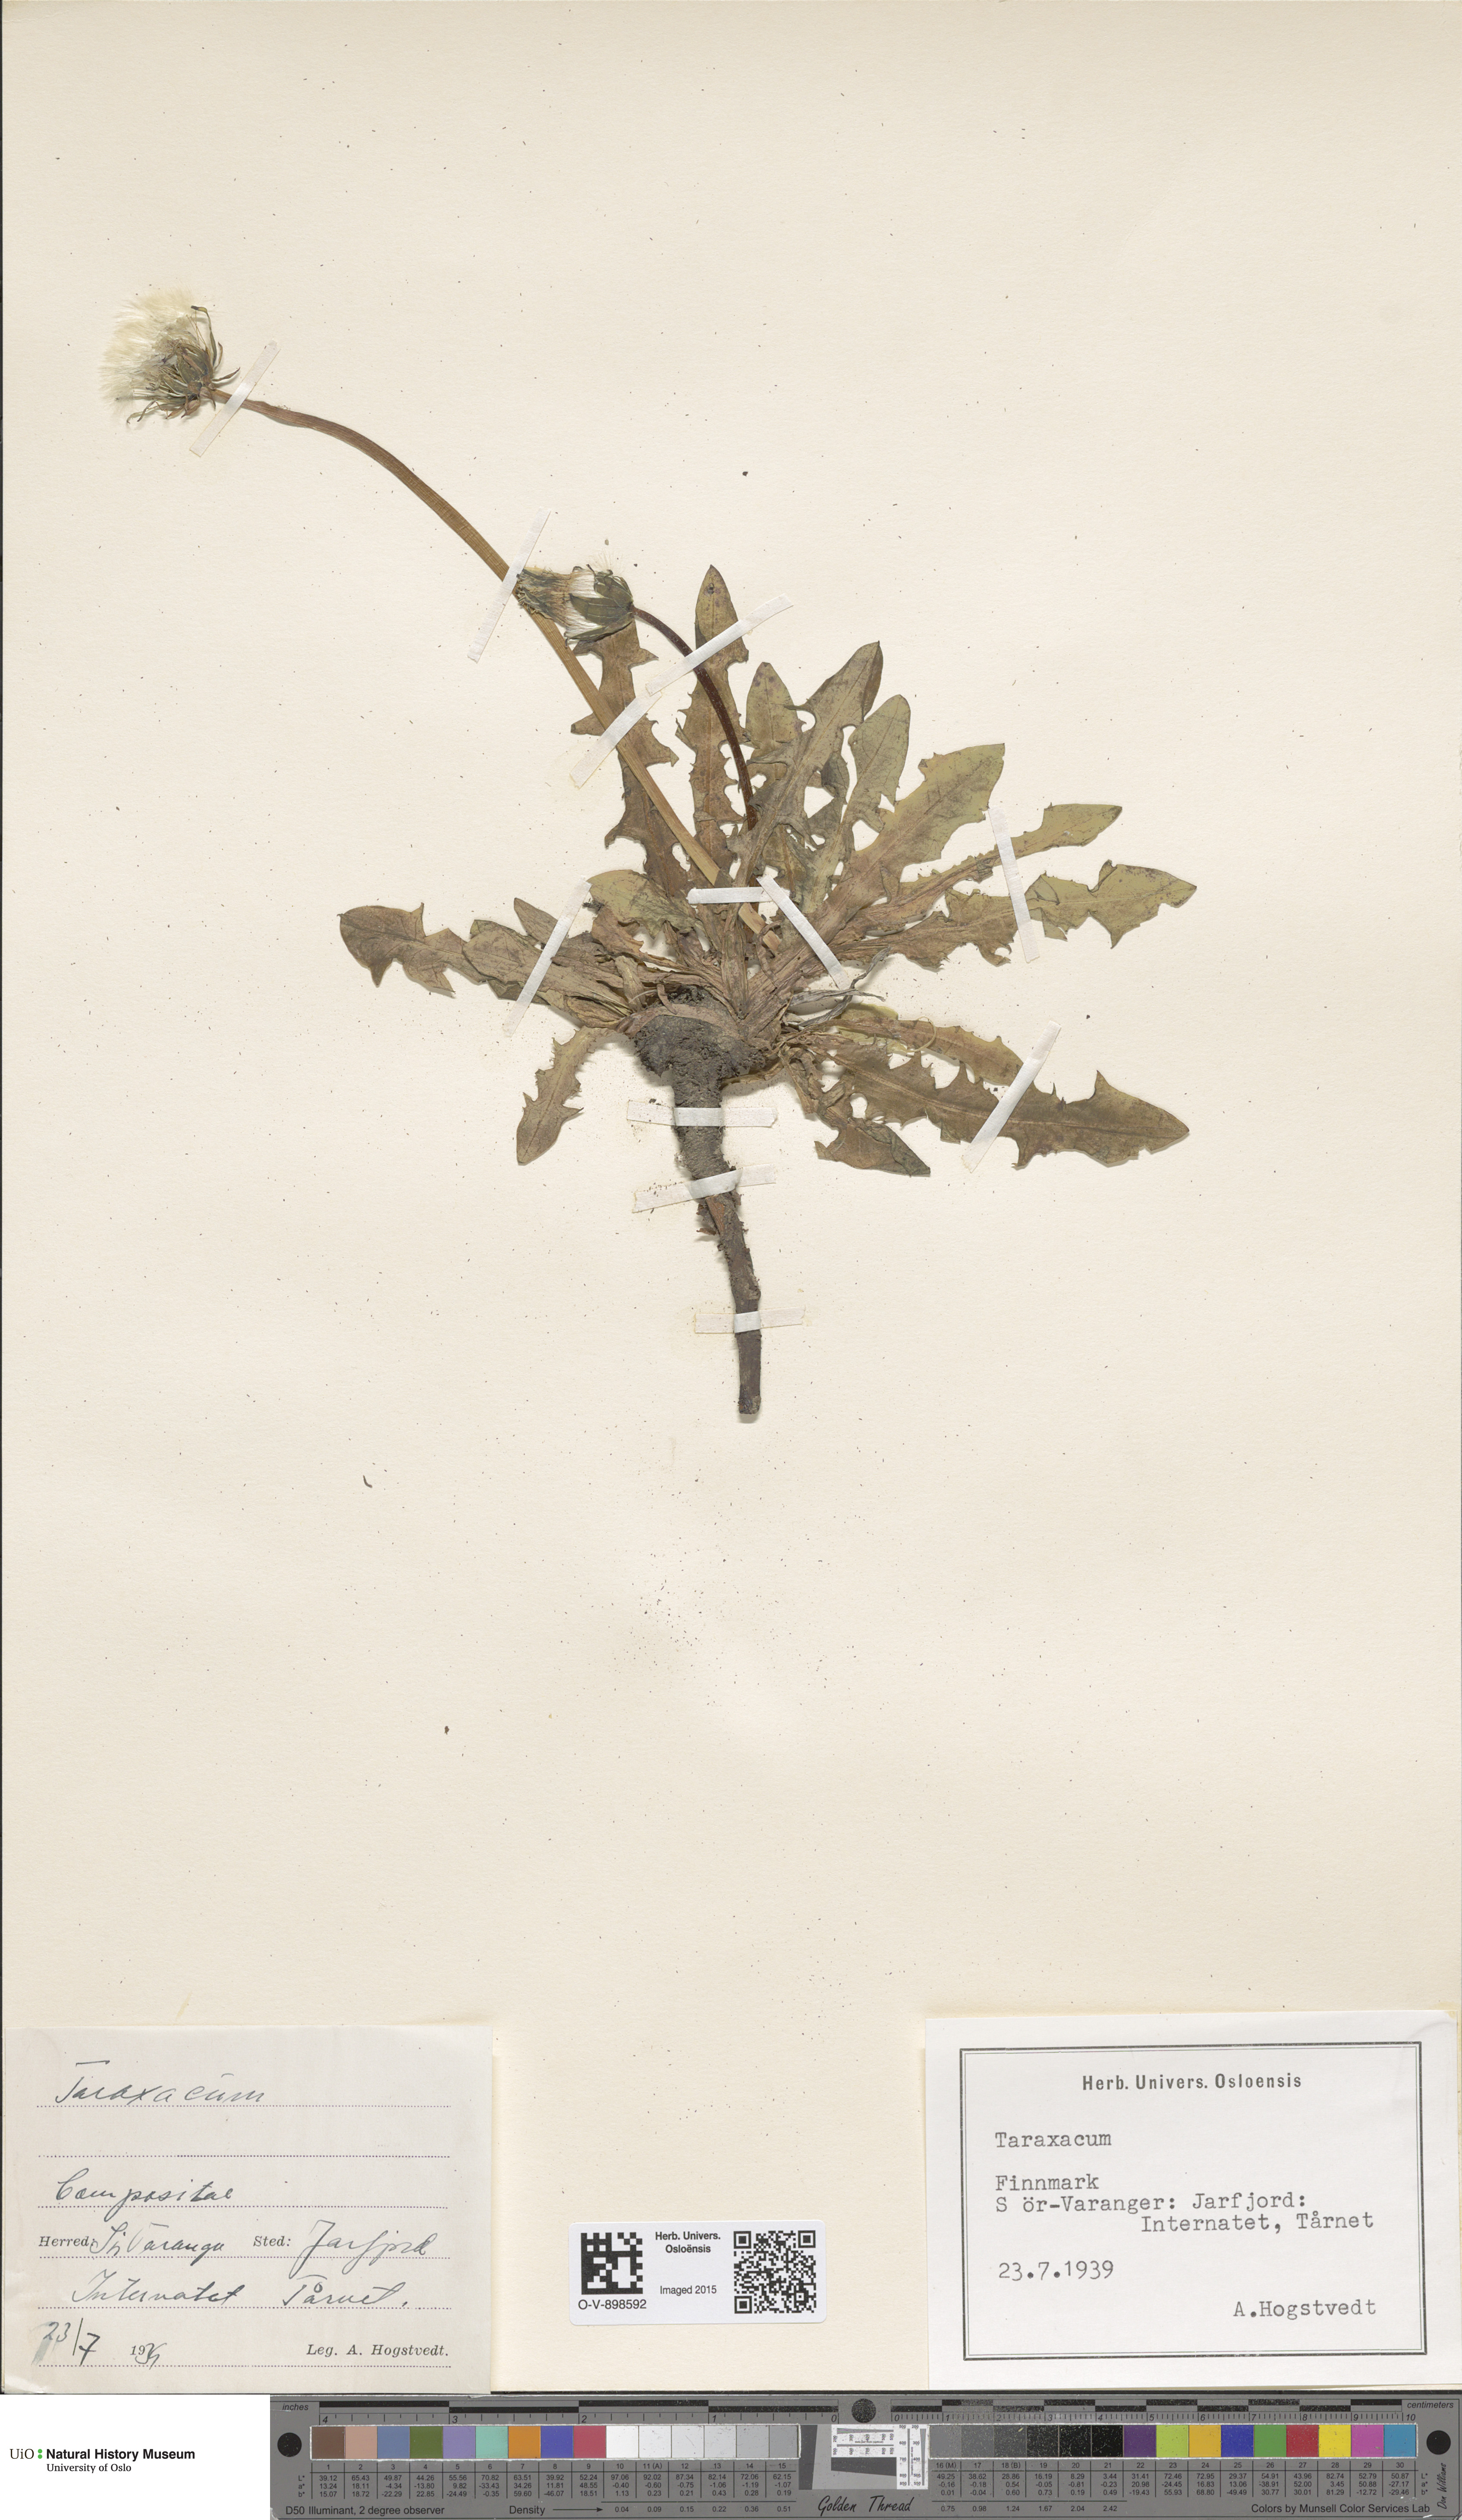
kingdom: Plantae
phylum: Tracheophyta
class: Magnoliopsida
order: Asterales
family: Asteraceae
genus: Taraxacum
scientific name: Taraxacum
